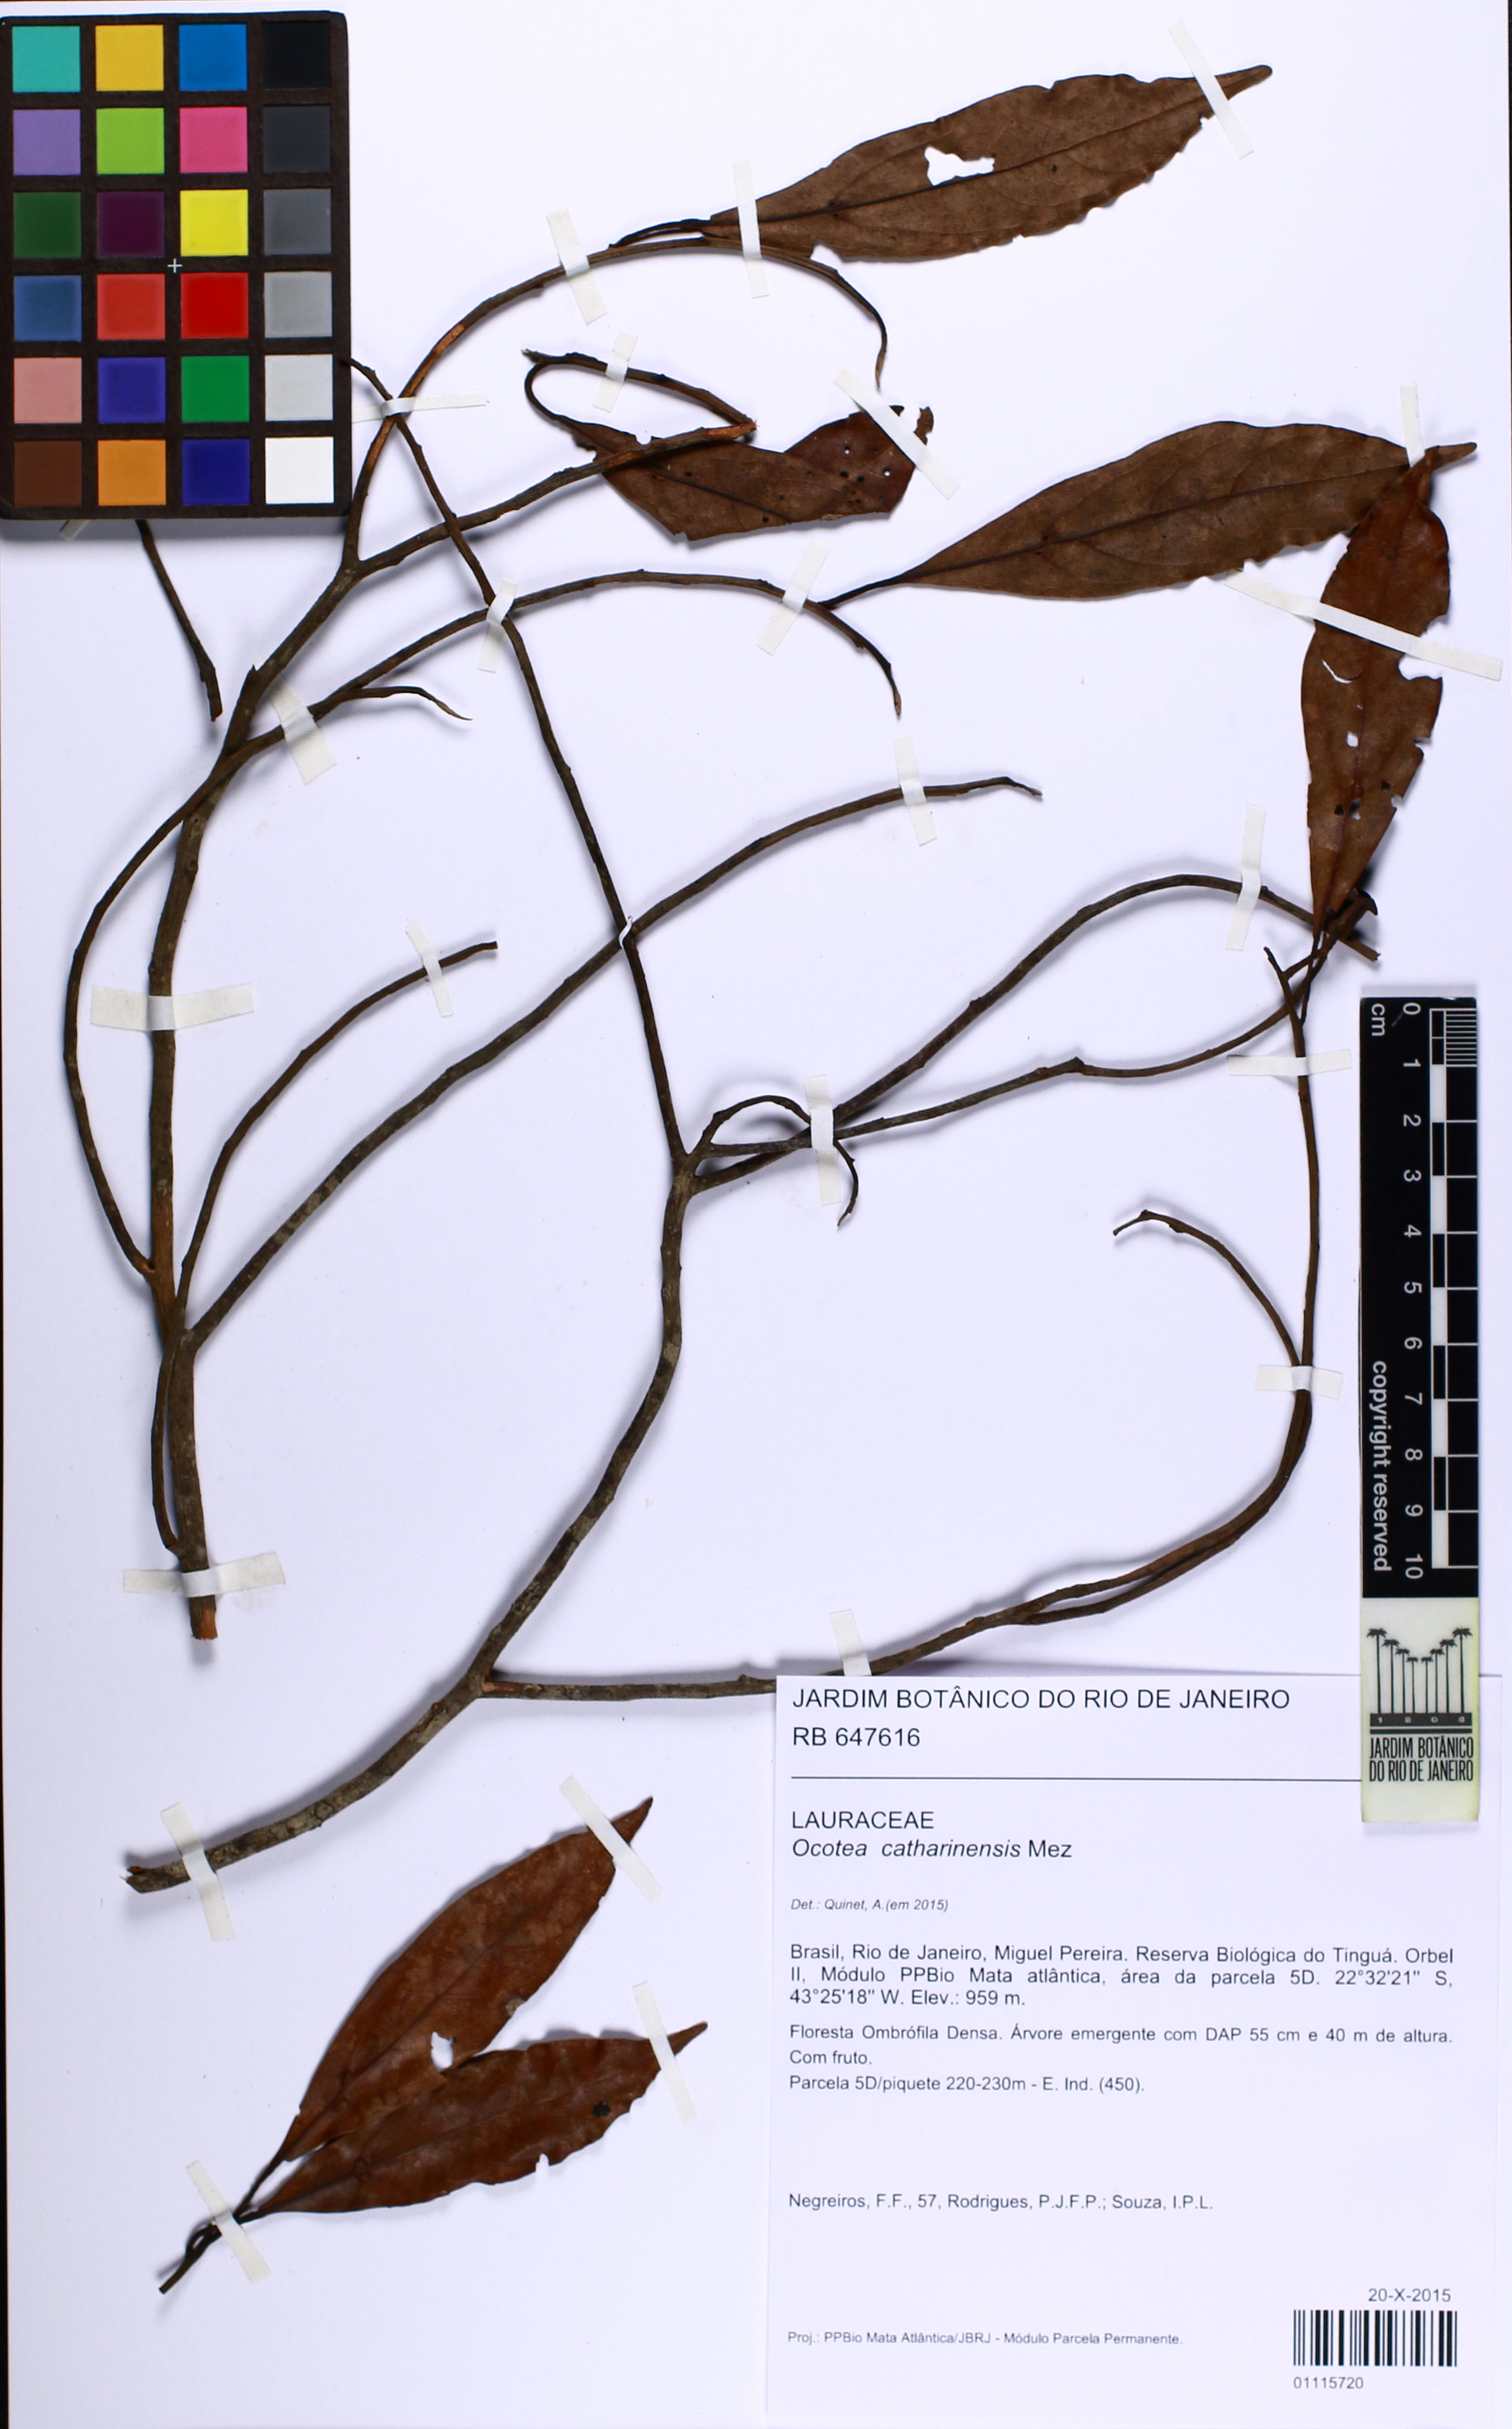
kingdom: Plantae
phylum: Tracheophyta
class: Magnoliopsida
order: Laurales
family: Lauraceae
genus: Ocotea
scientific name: Ocotea catharinensis
